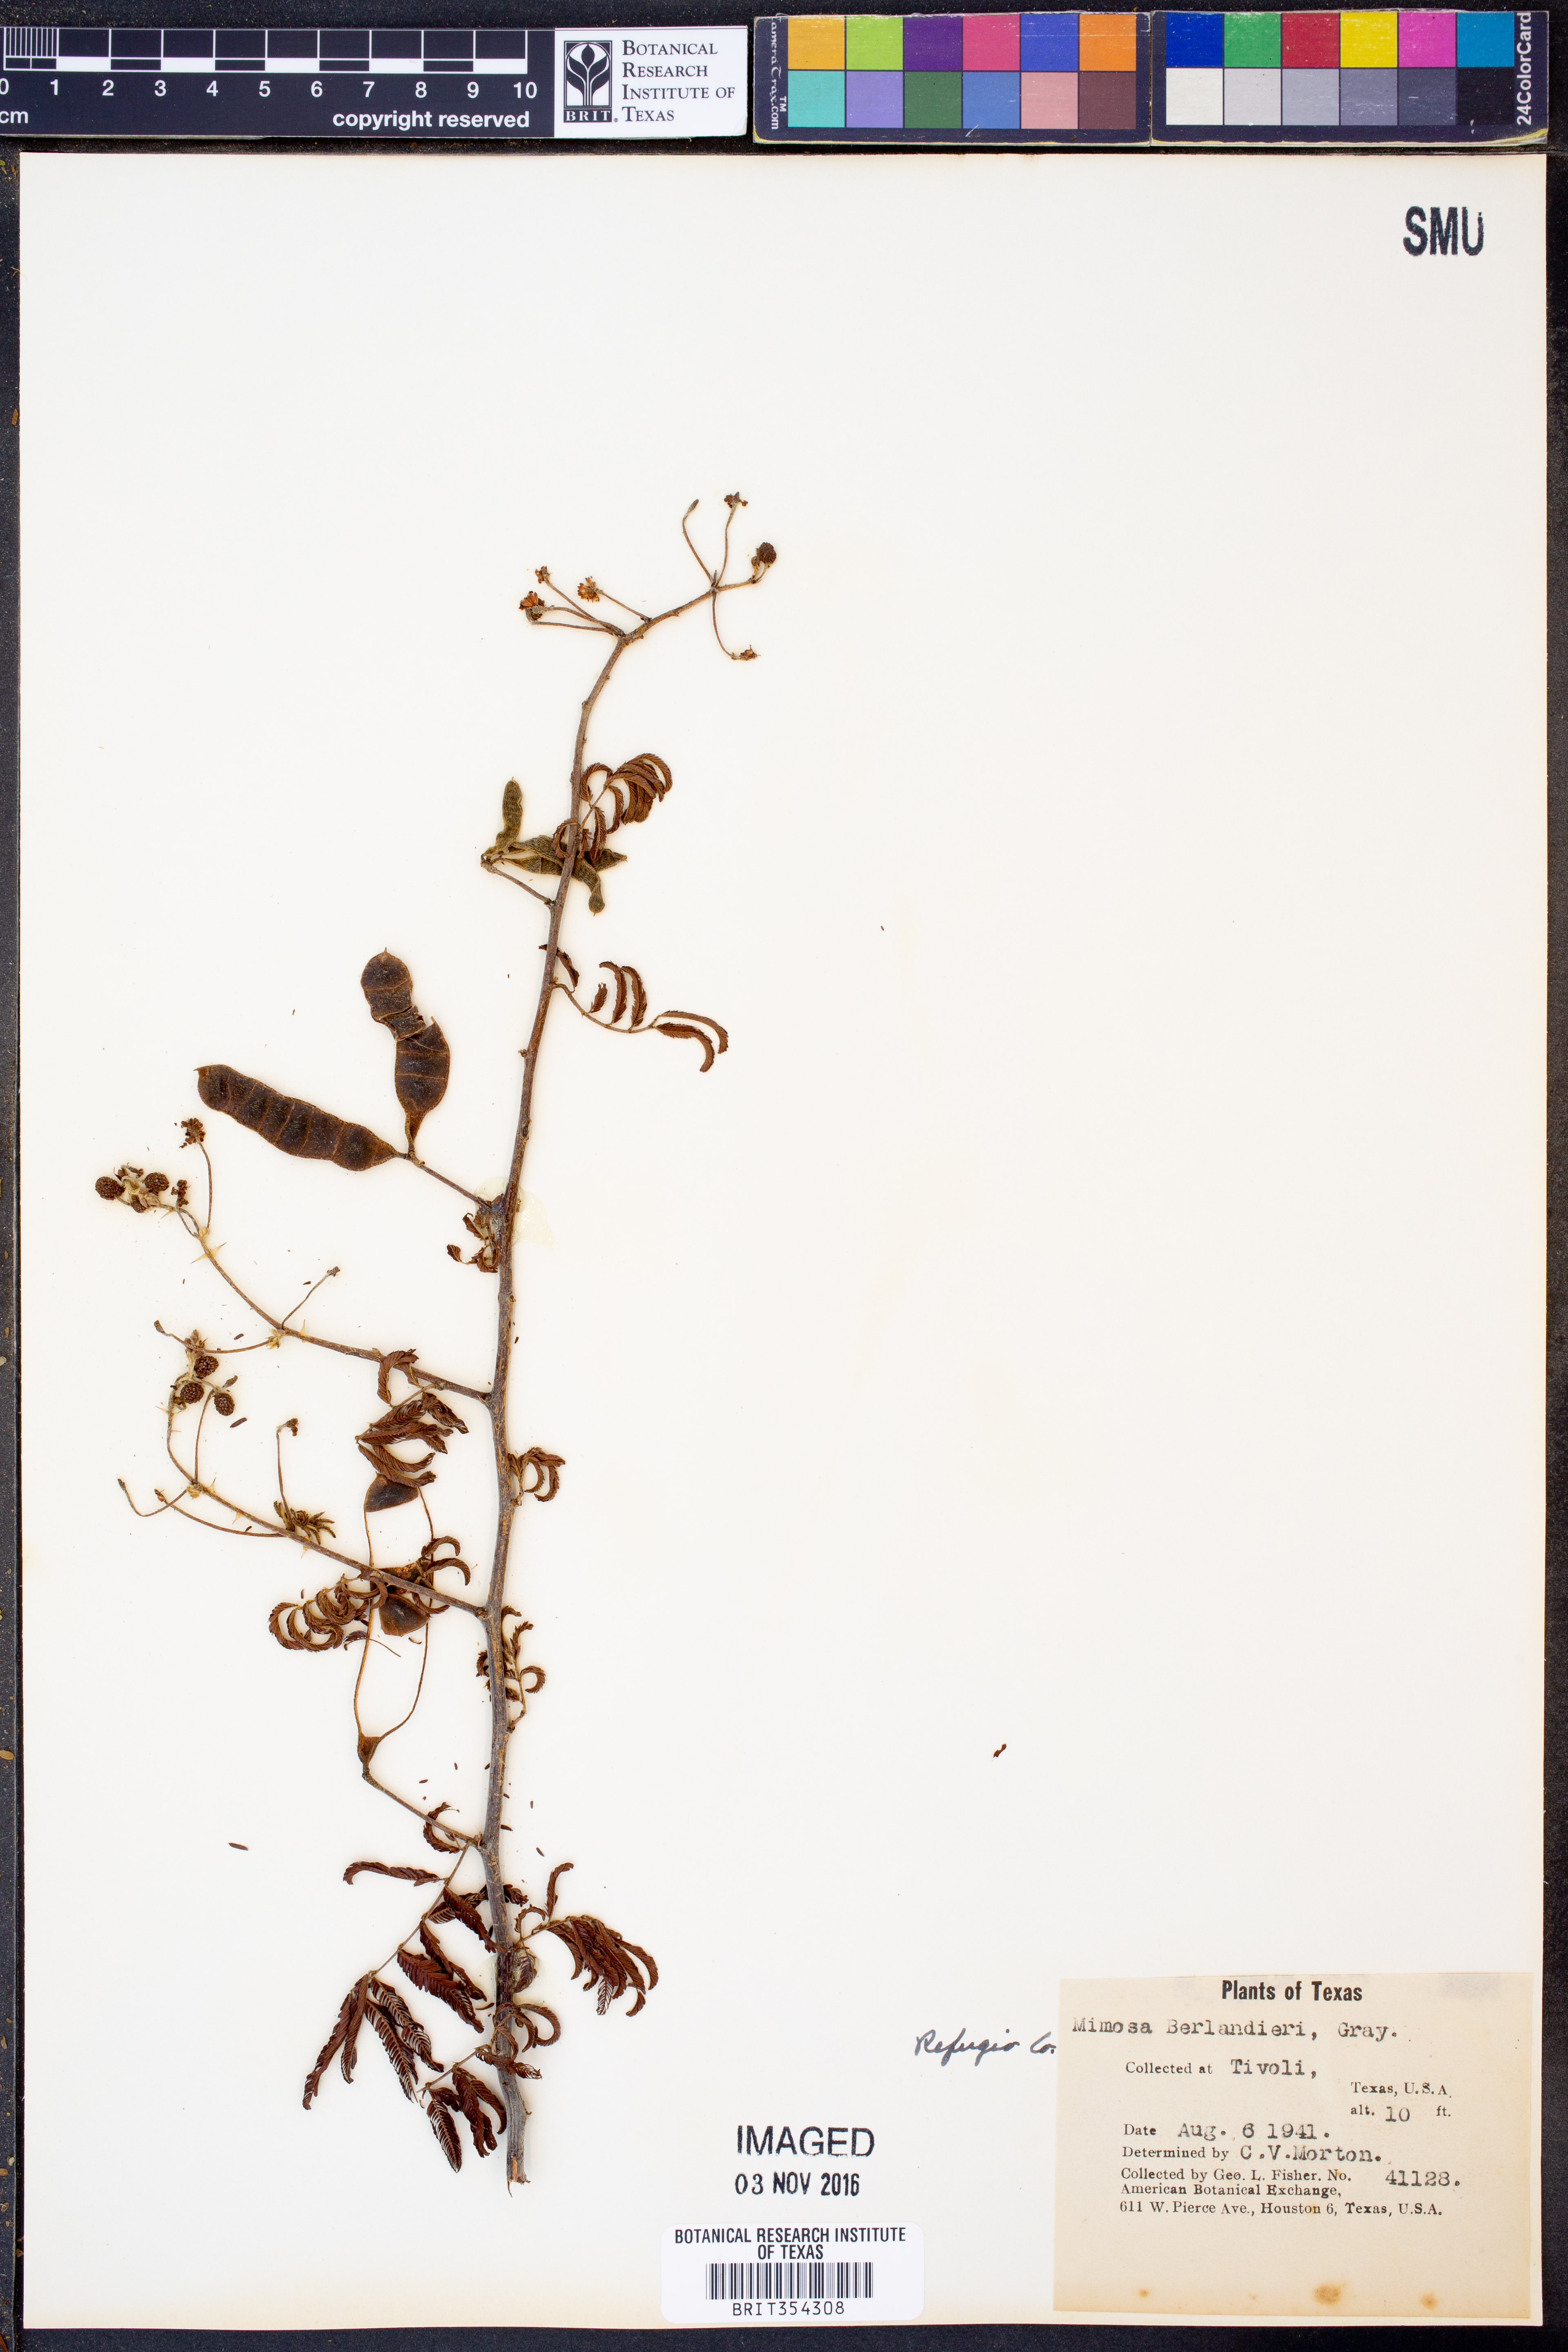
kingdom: Plantae
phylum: Tracheophyta
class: Magnoliopsida
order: Fabales
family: Fabaceae
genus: Mimosa
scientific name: Mimosa pigra
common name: Black mimosa
